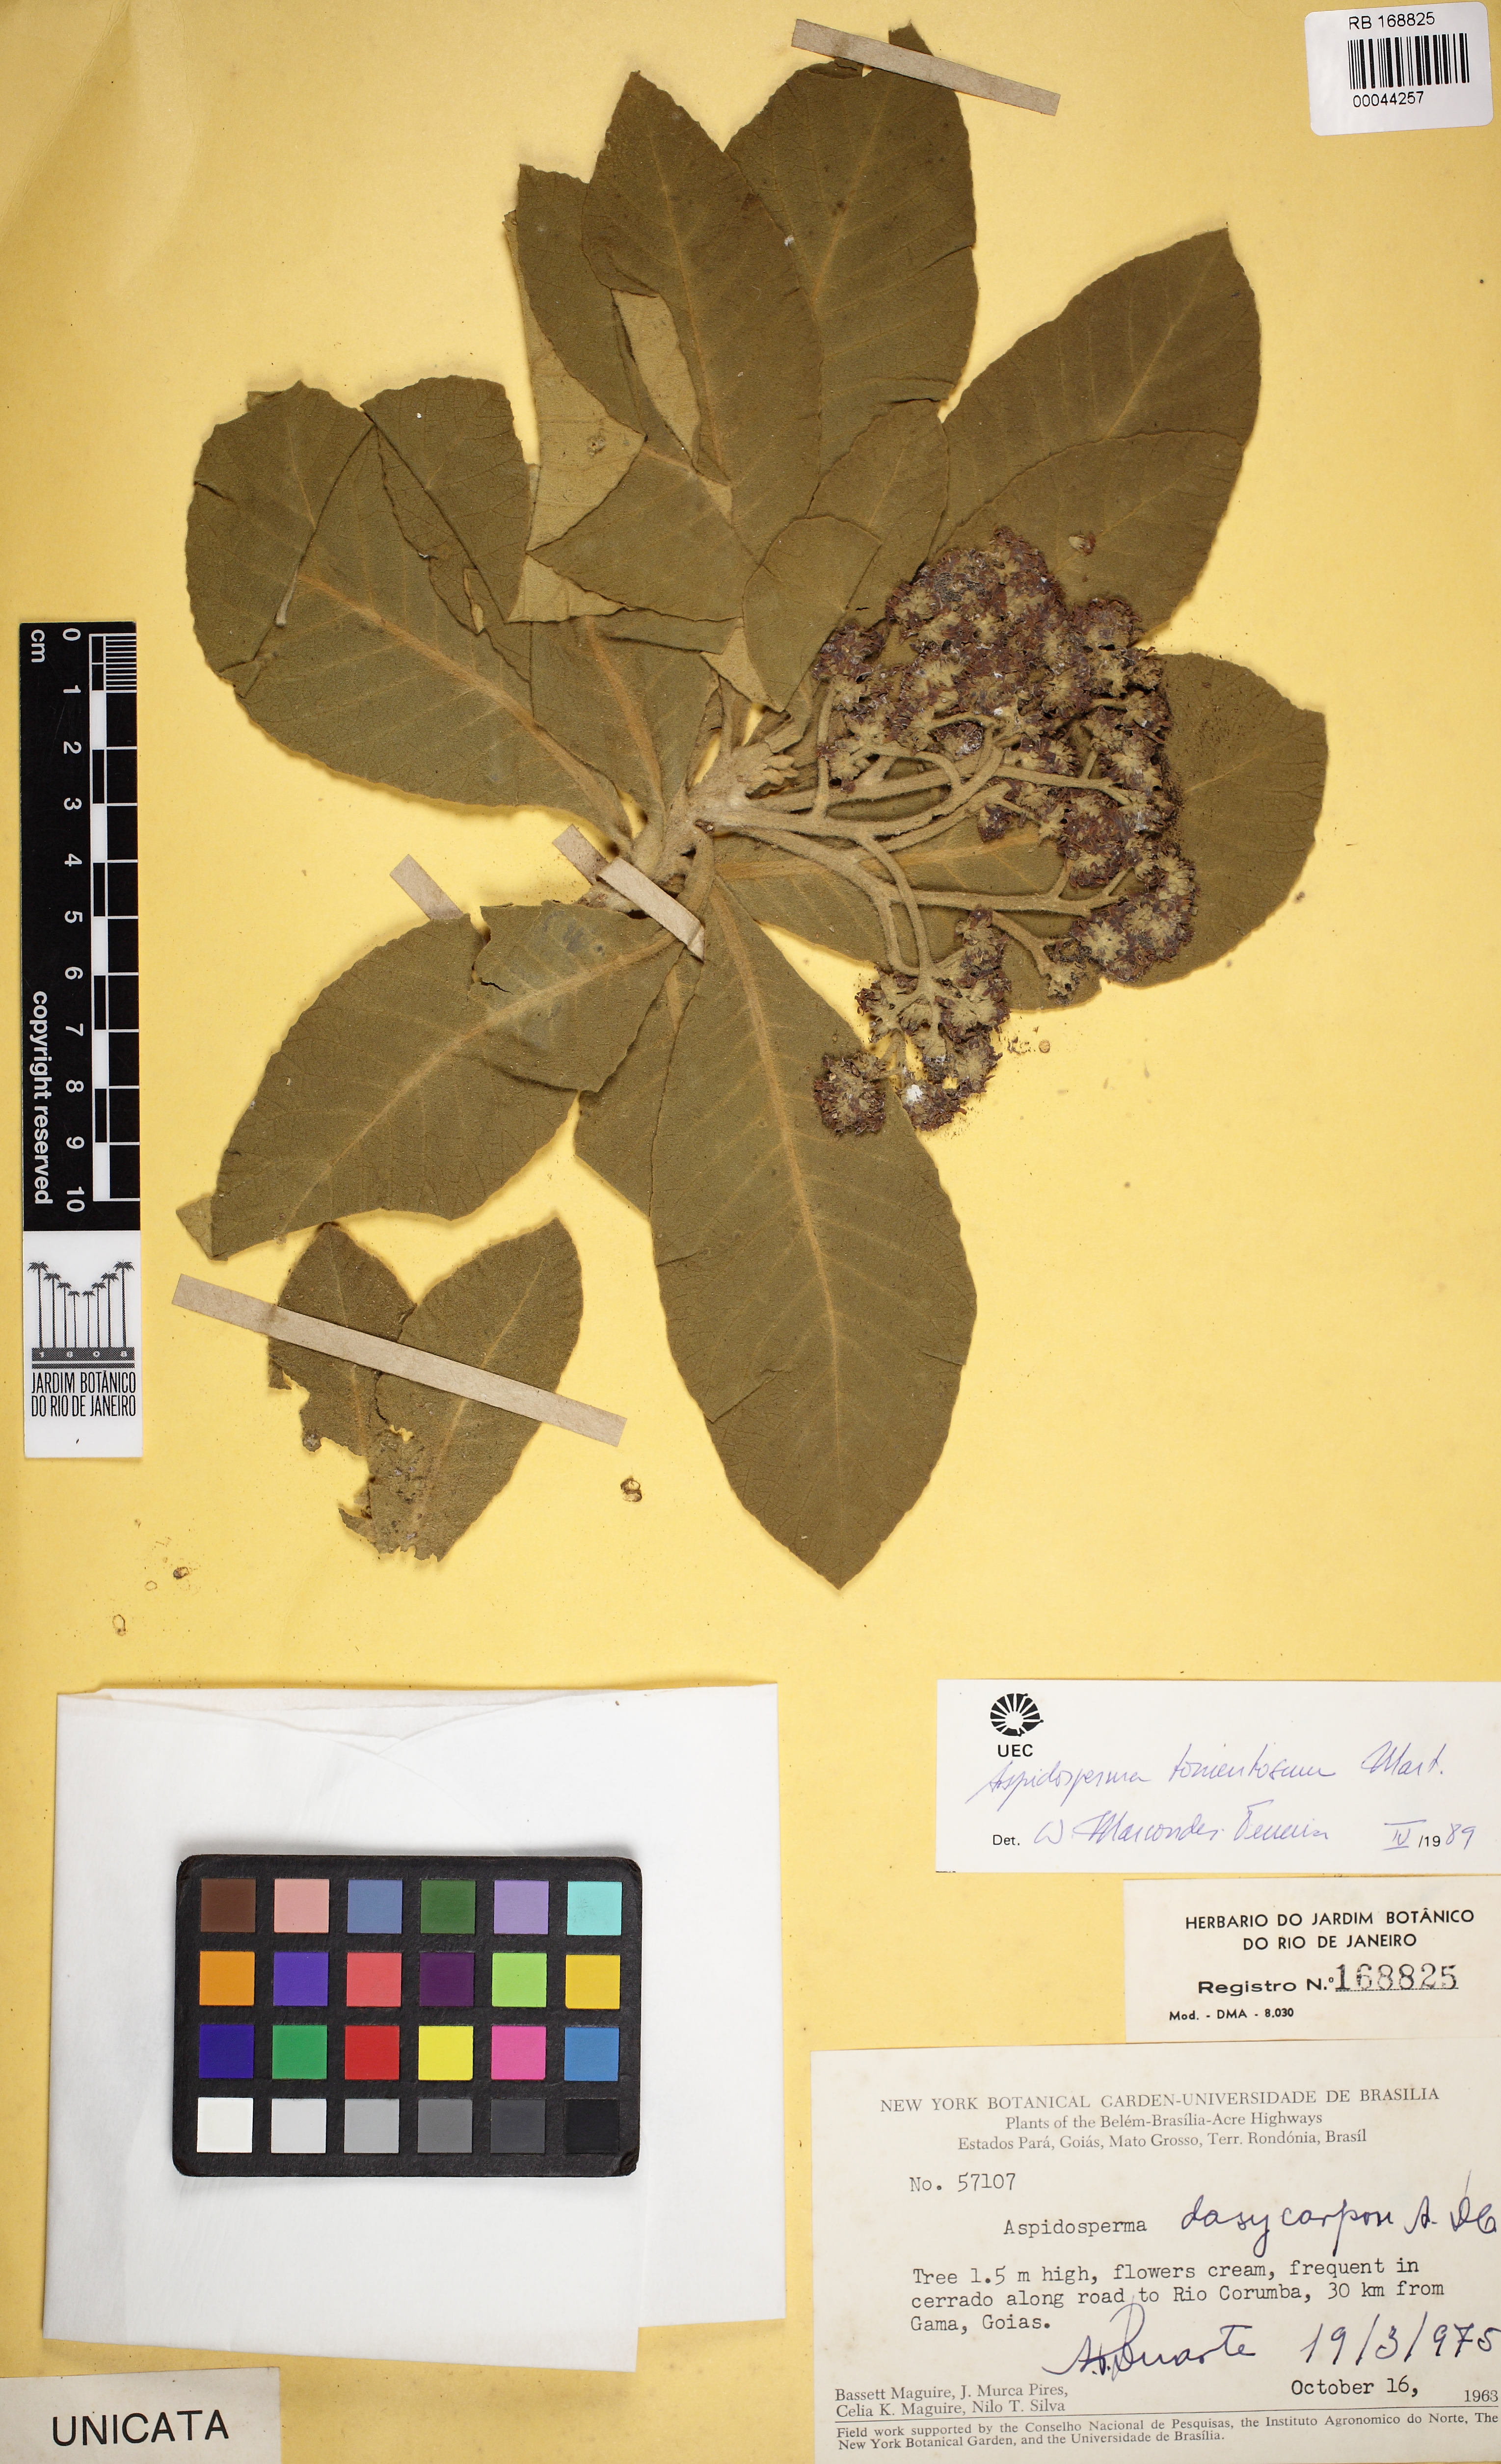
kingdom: Plantae
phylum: Tracheophyta
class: Magnoliopsida
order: Gentianales
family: Apocynaceae
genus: Aspidosperma
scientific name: Aspidosperma tomentosum
